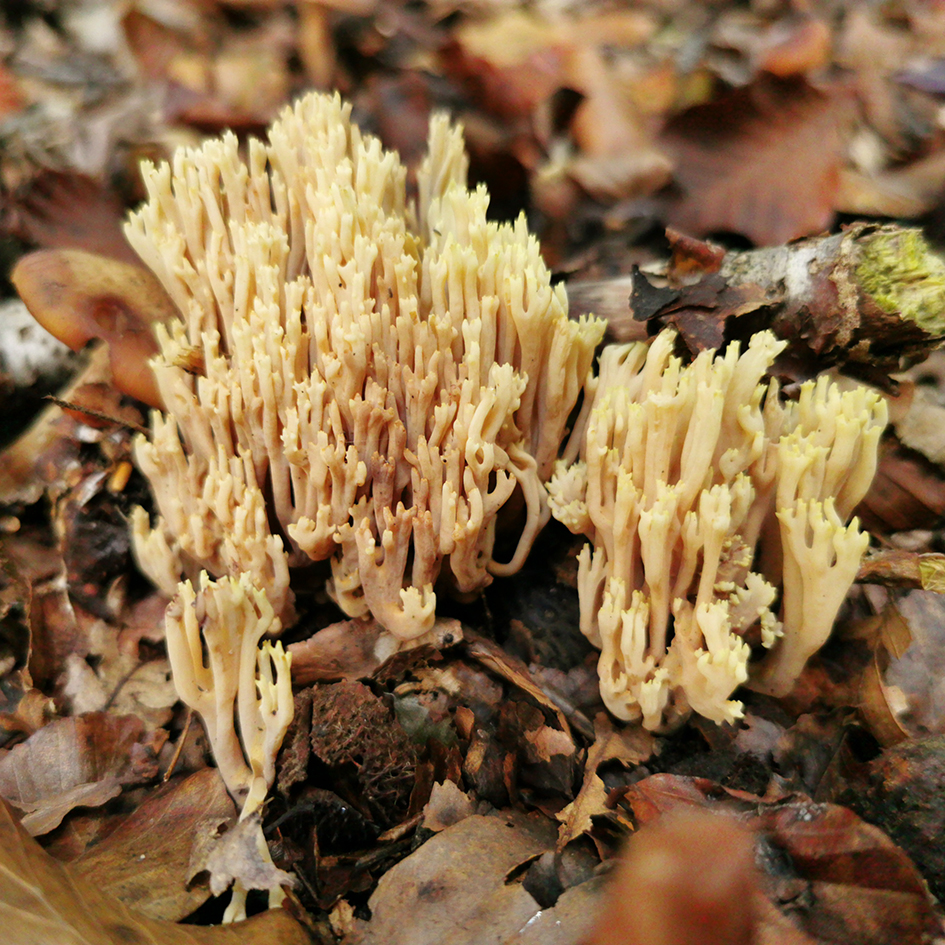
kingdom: Fungi
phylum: Basidiomycota
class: Agaricomycetes
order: Gomphales
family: Gomphaceae
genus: Ramaria
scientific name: Ramaria stricta
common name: rank koralsvamp
